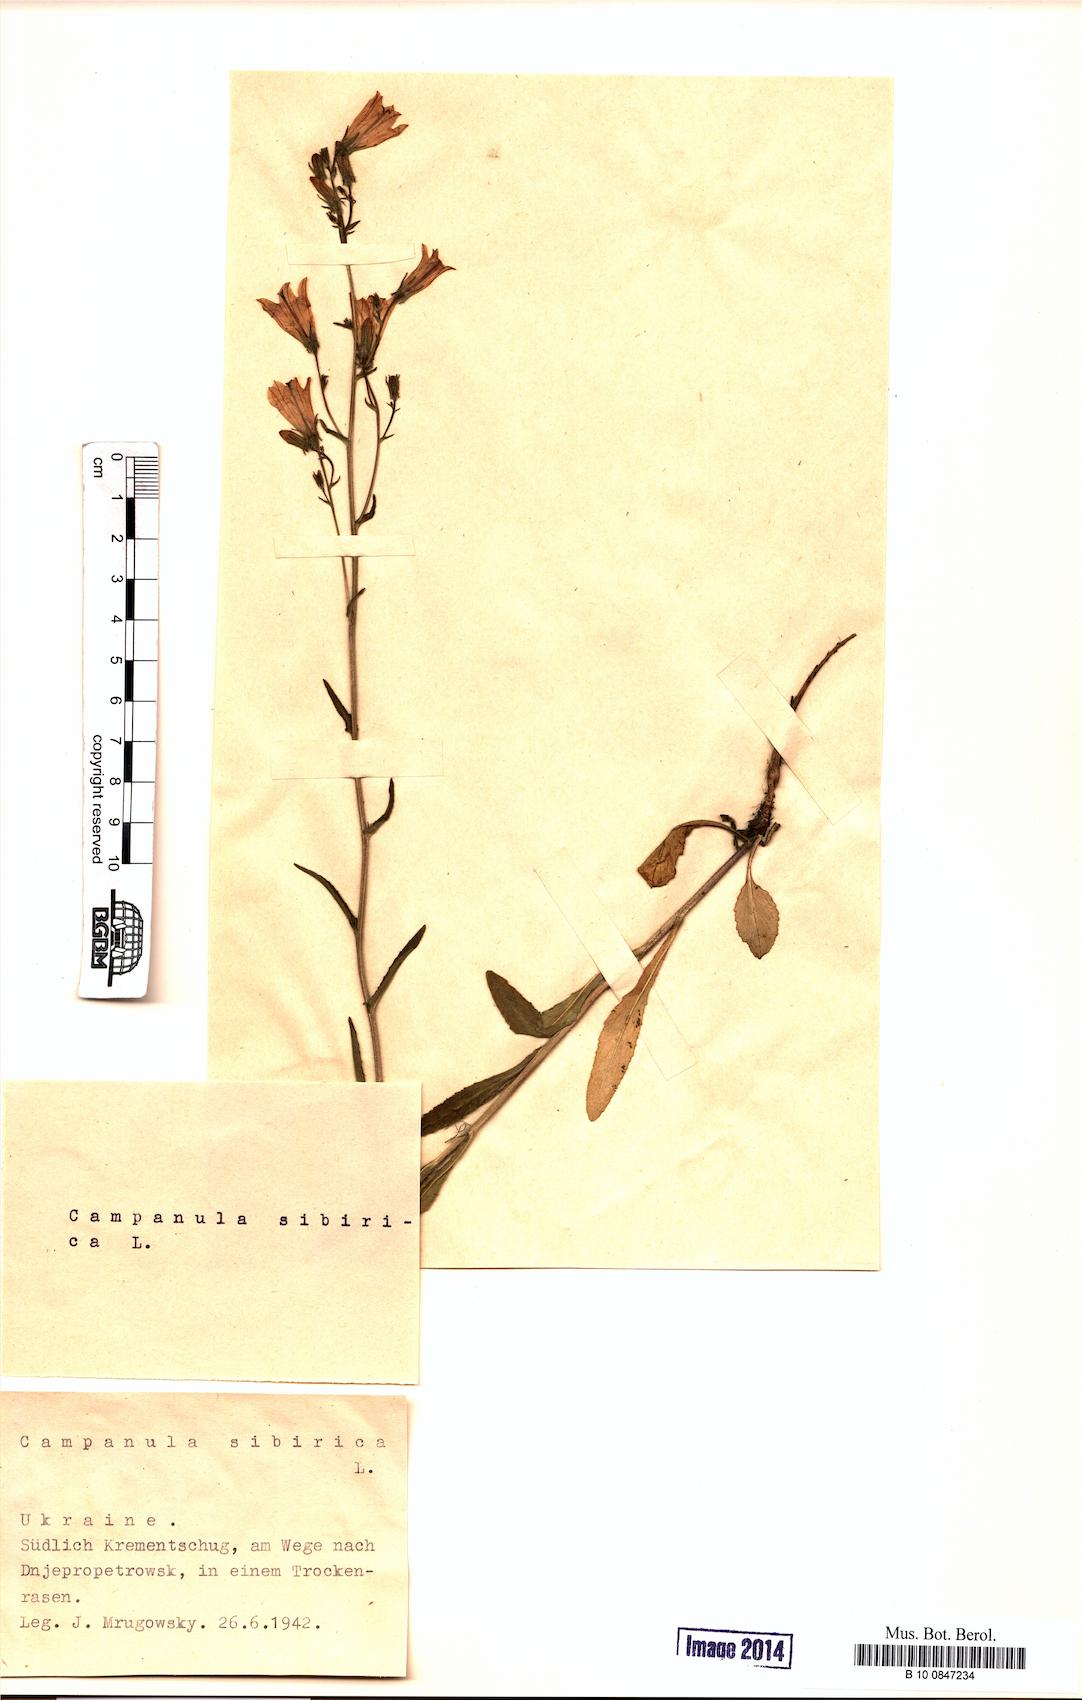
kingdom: Plantae
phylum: Tracheophyta
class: Magnoliopsida
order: Asterales
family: Campanulaceae
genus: Campanula
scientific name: Campanula sibirica
